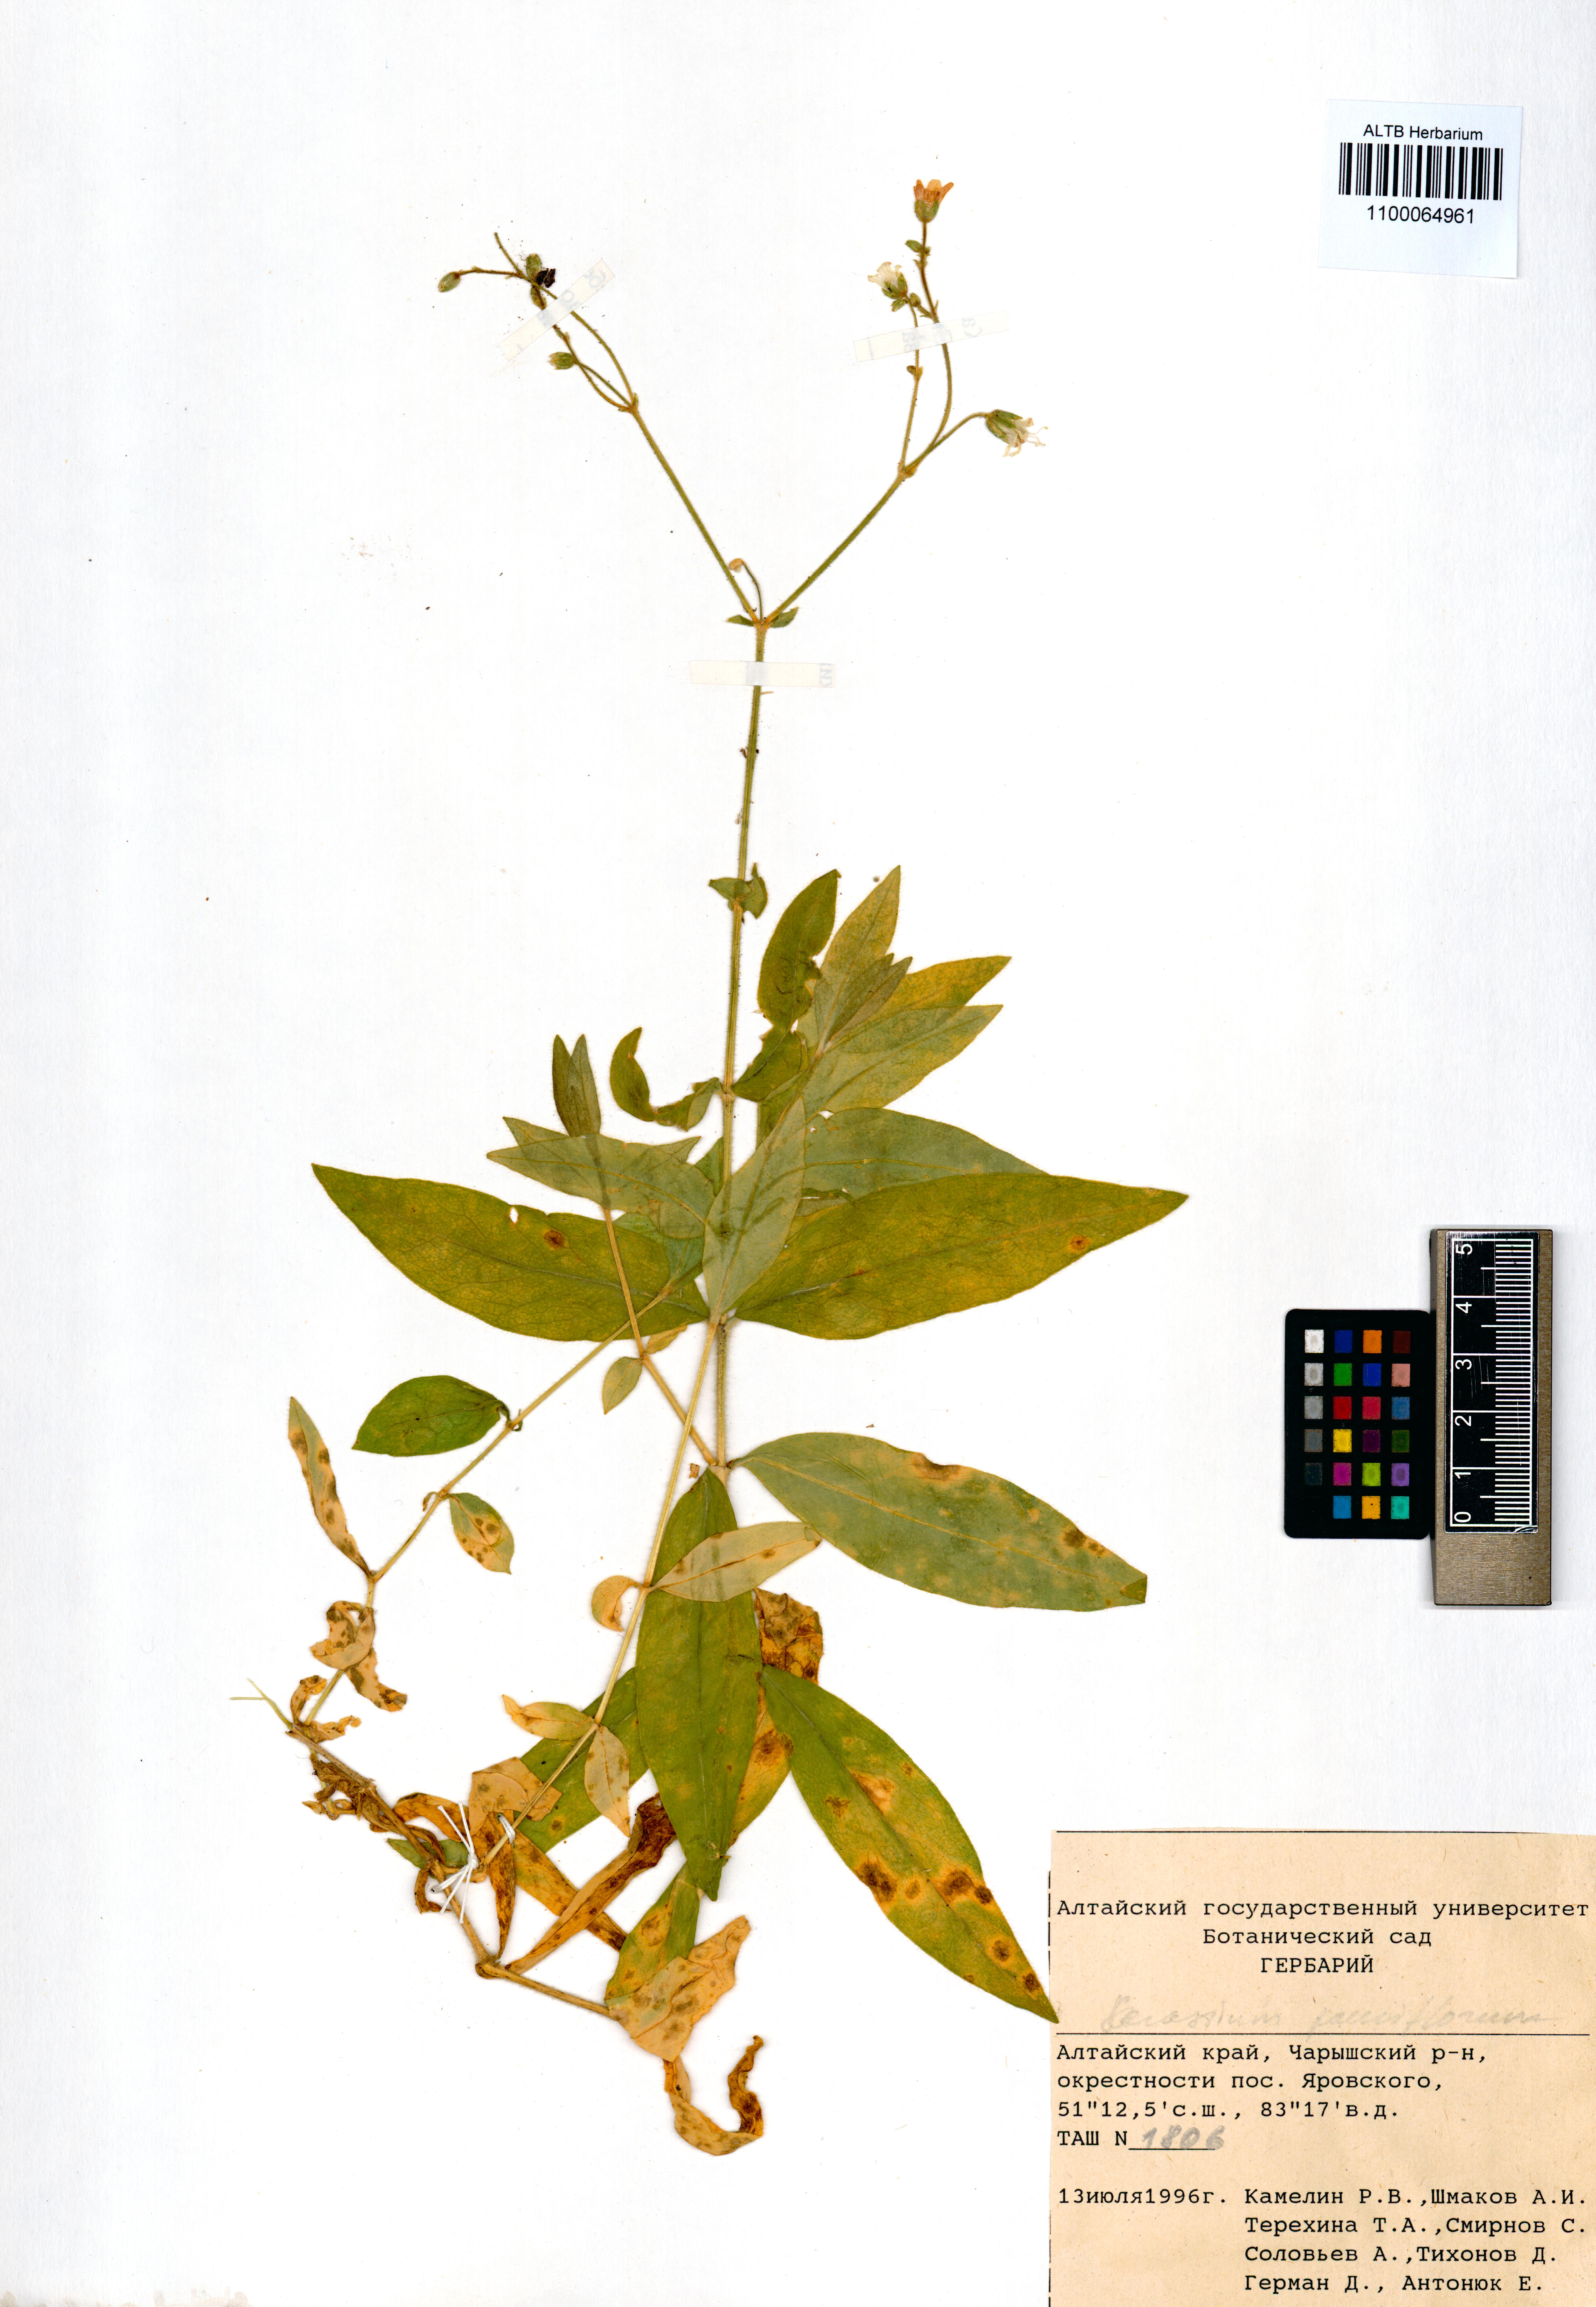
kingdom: Plantae
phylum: Tracheophyta
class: Magnoliopsida
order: Caryophyllales
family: Caryophyllaceae
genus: Cerastium
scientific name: Cerastium pauciflorum
